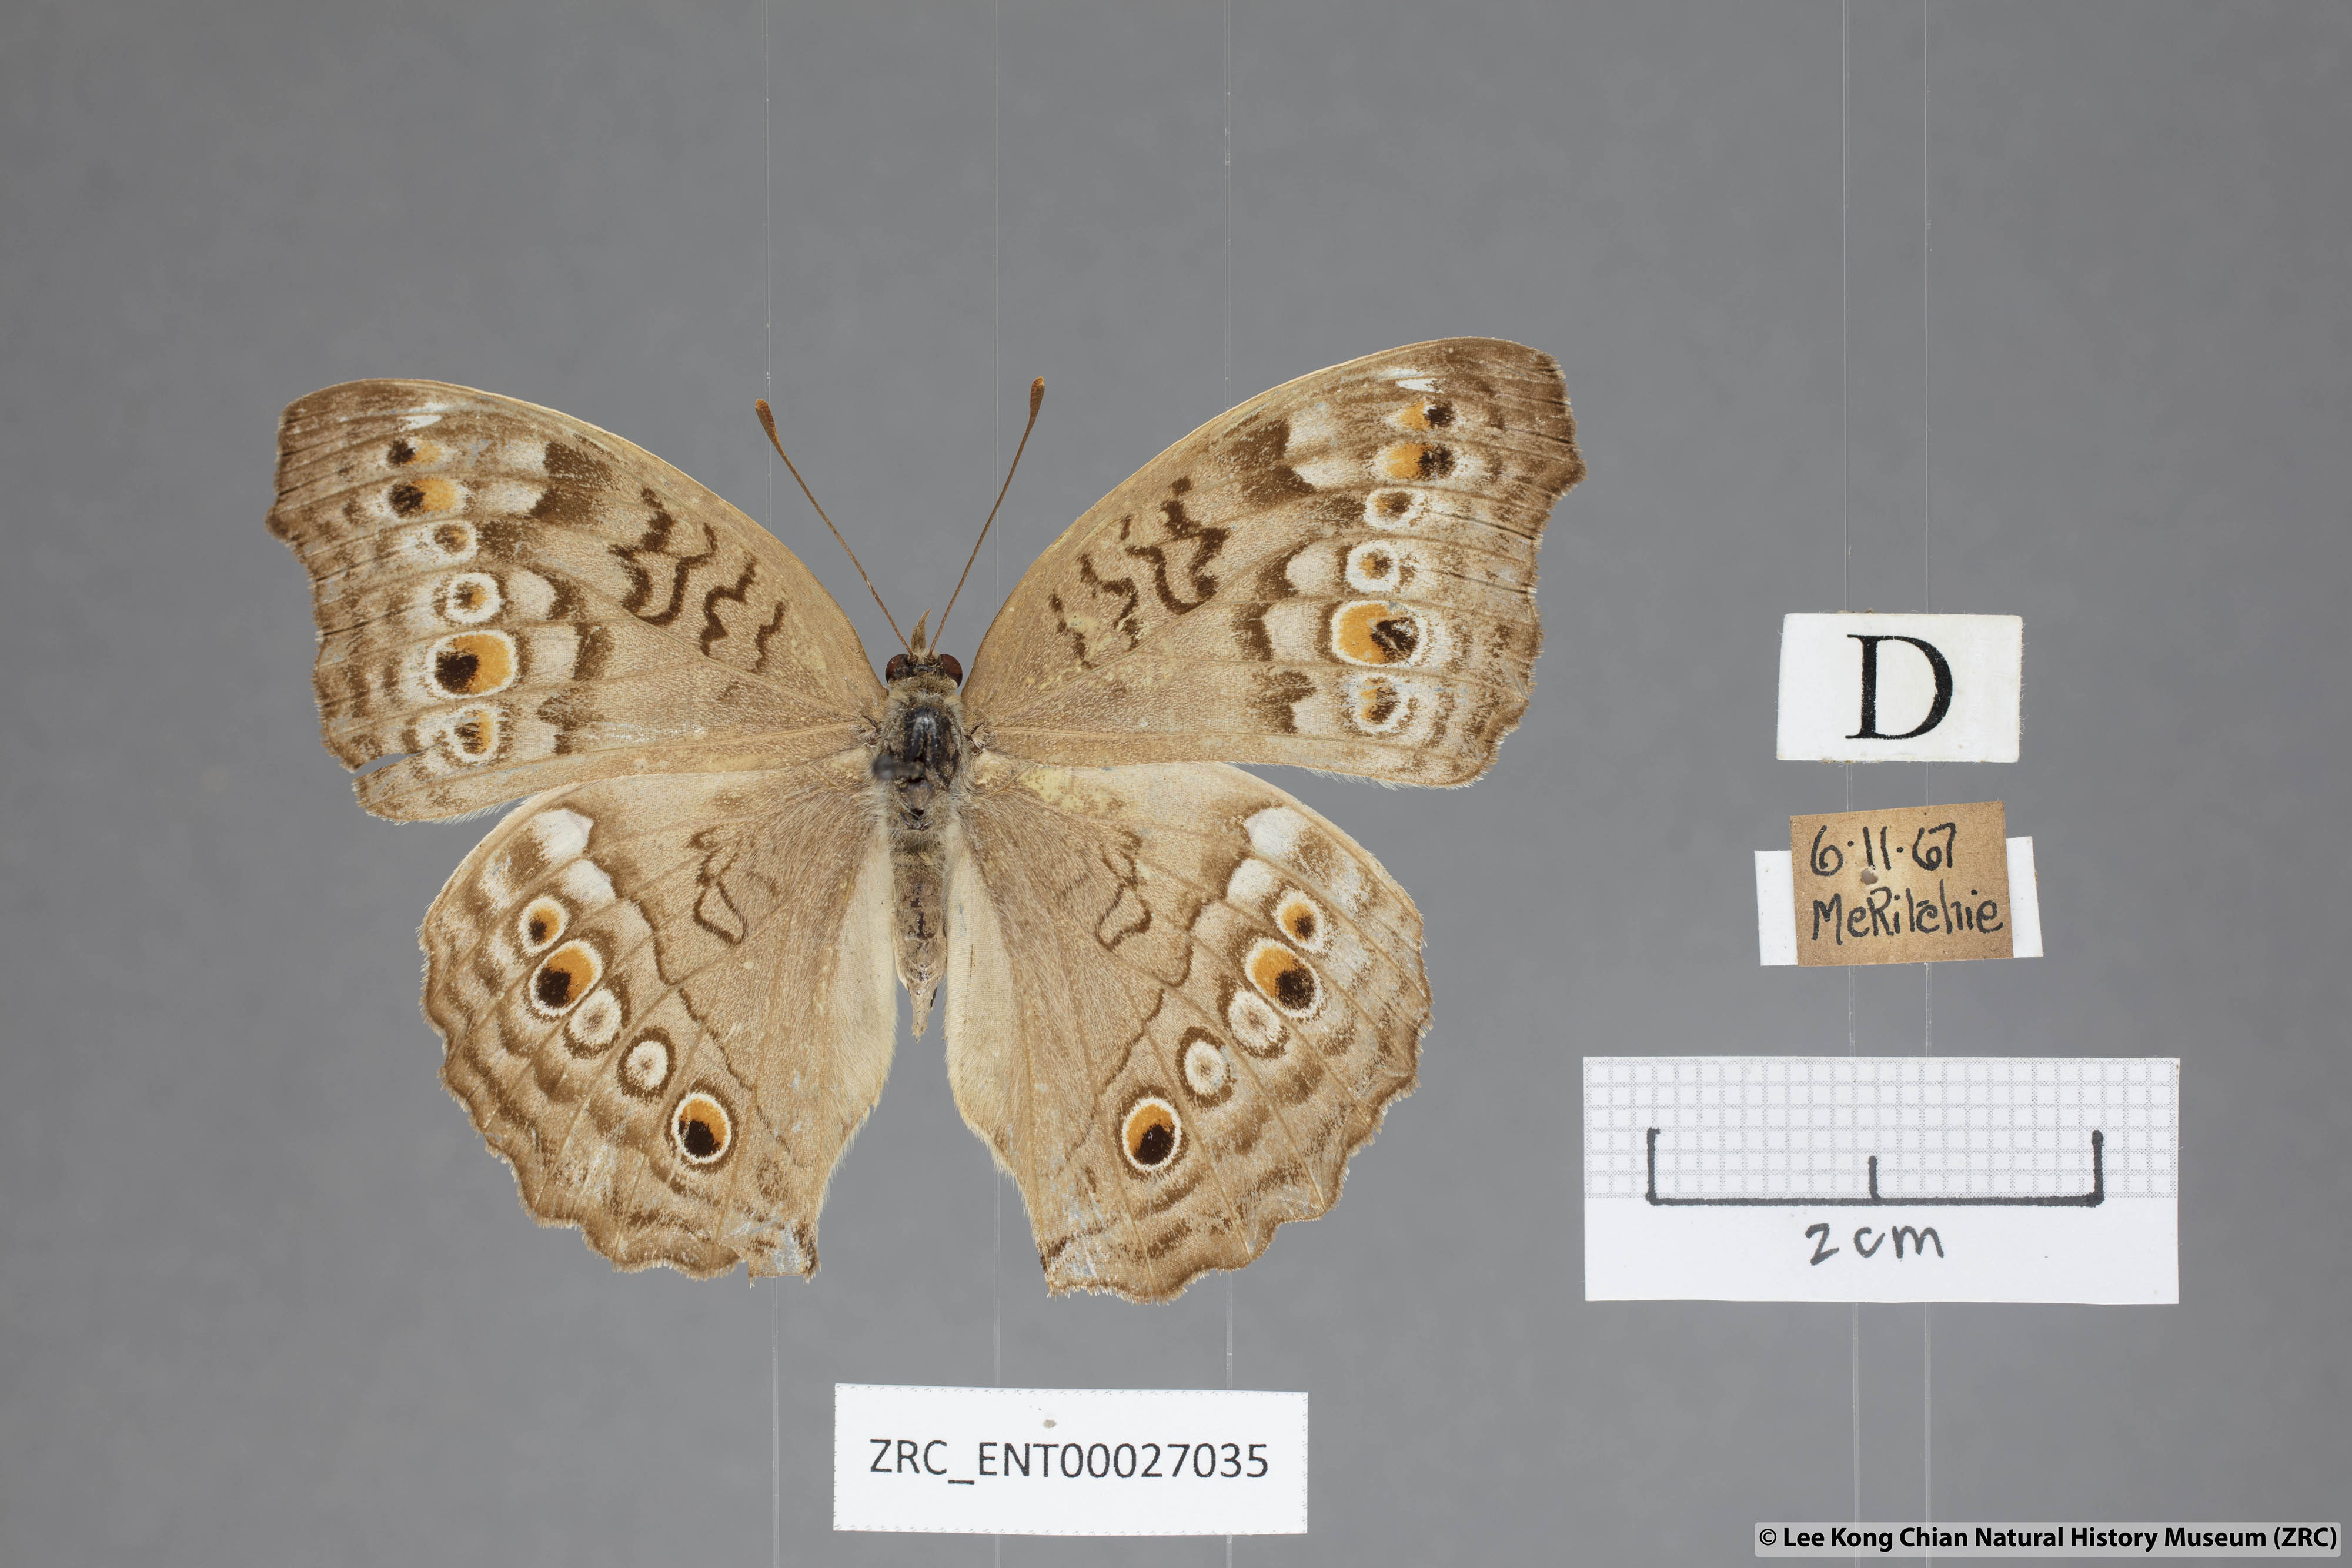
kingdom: Animalia
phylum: Arthropoda
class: Insecta
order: Lepidoptera
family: Nymphalidae
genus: Junonia
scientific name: Junonia atlites
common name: Grey pansy
